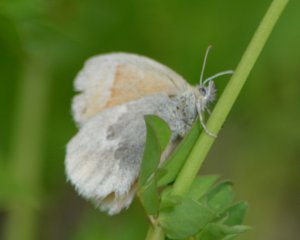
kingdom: Animalia
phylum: Arthropoda
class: Insecta
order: Lepidoptera
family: Nymphalidae
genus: Coenonympha
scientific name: Coenonympha tullia
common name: Large Heath
